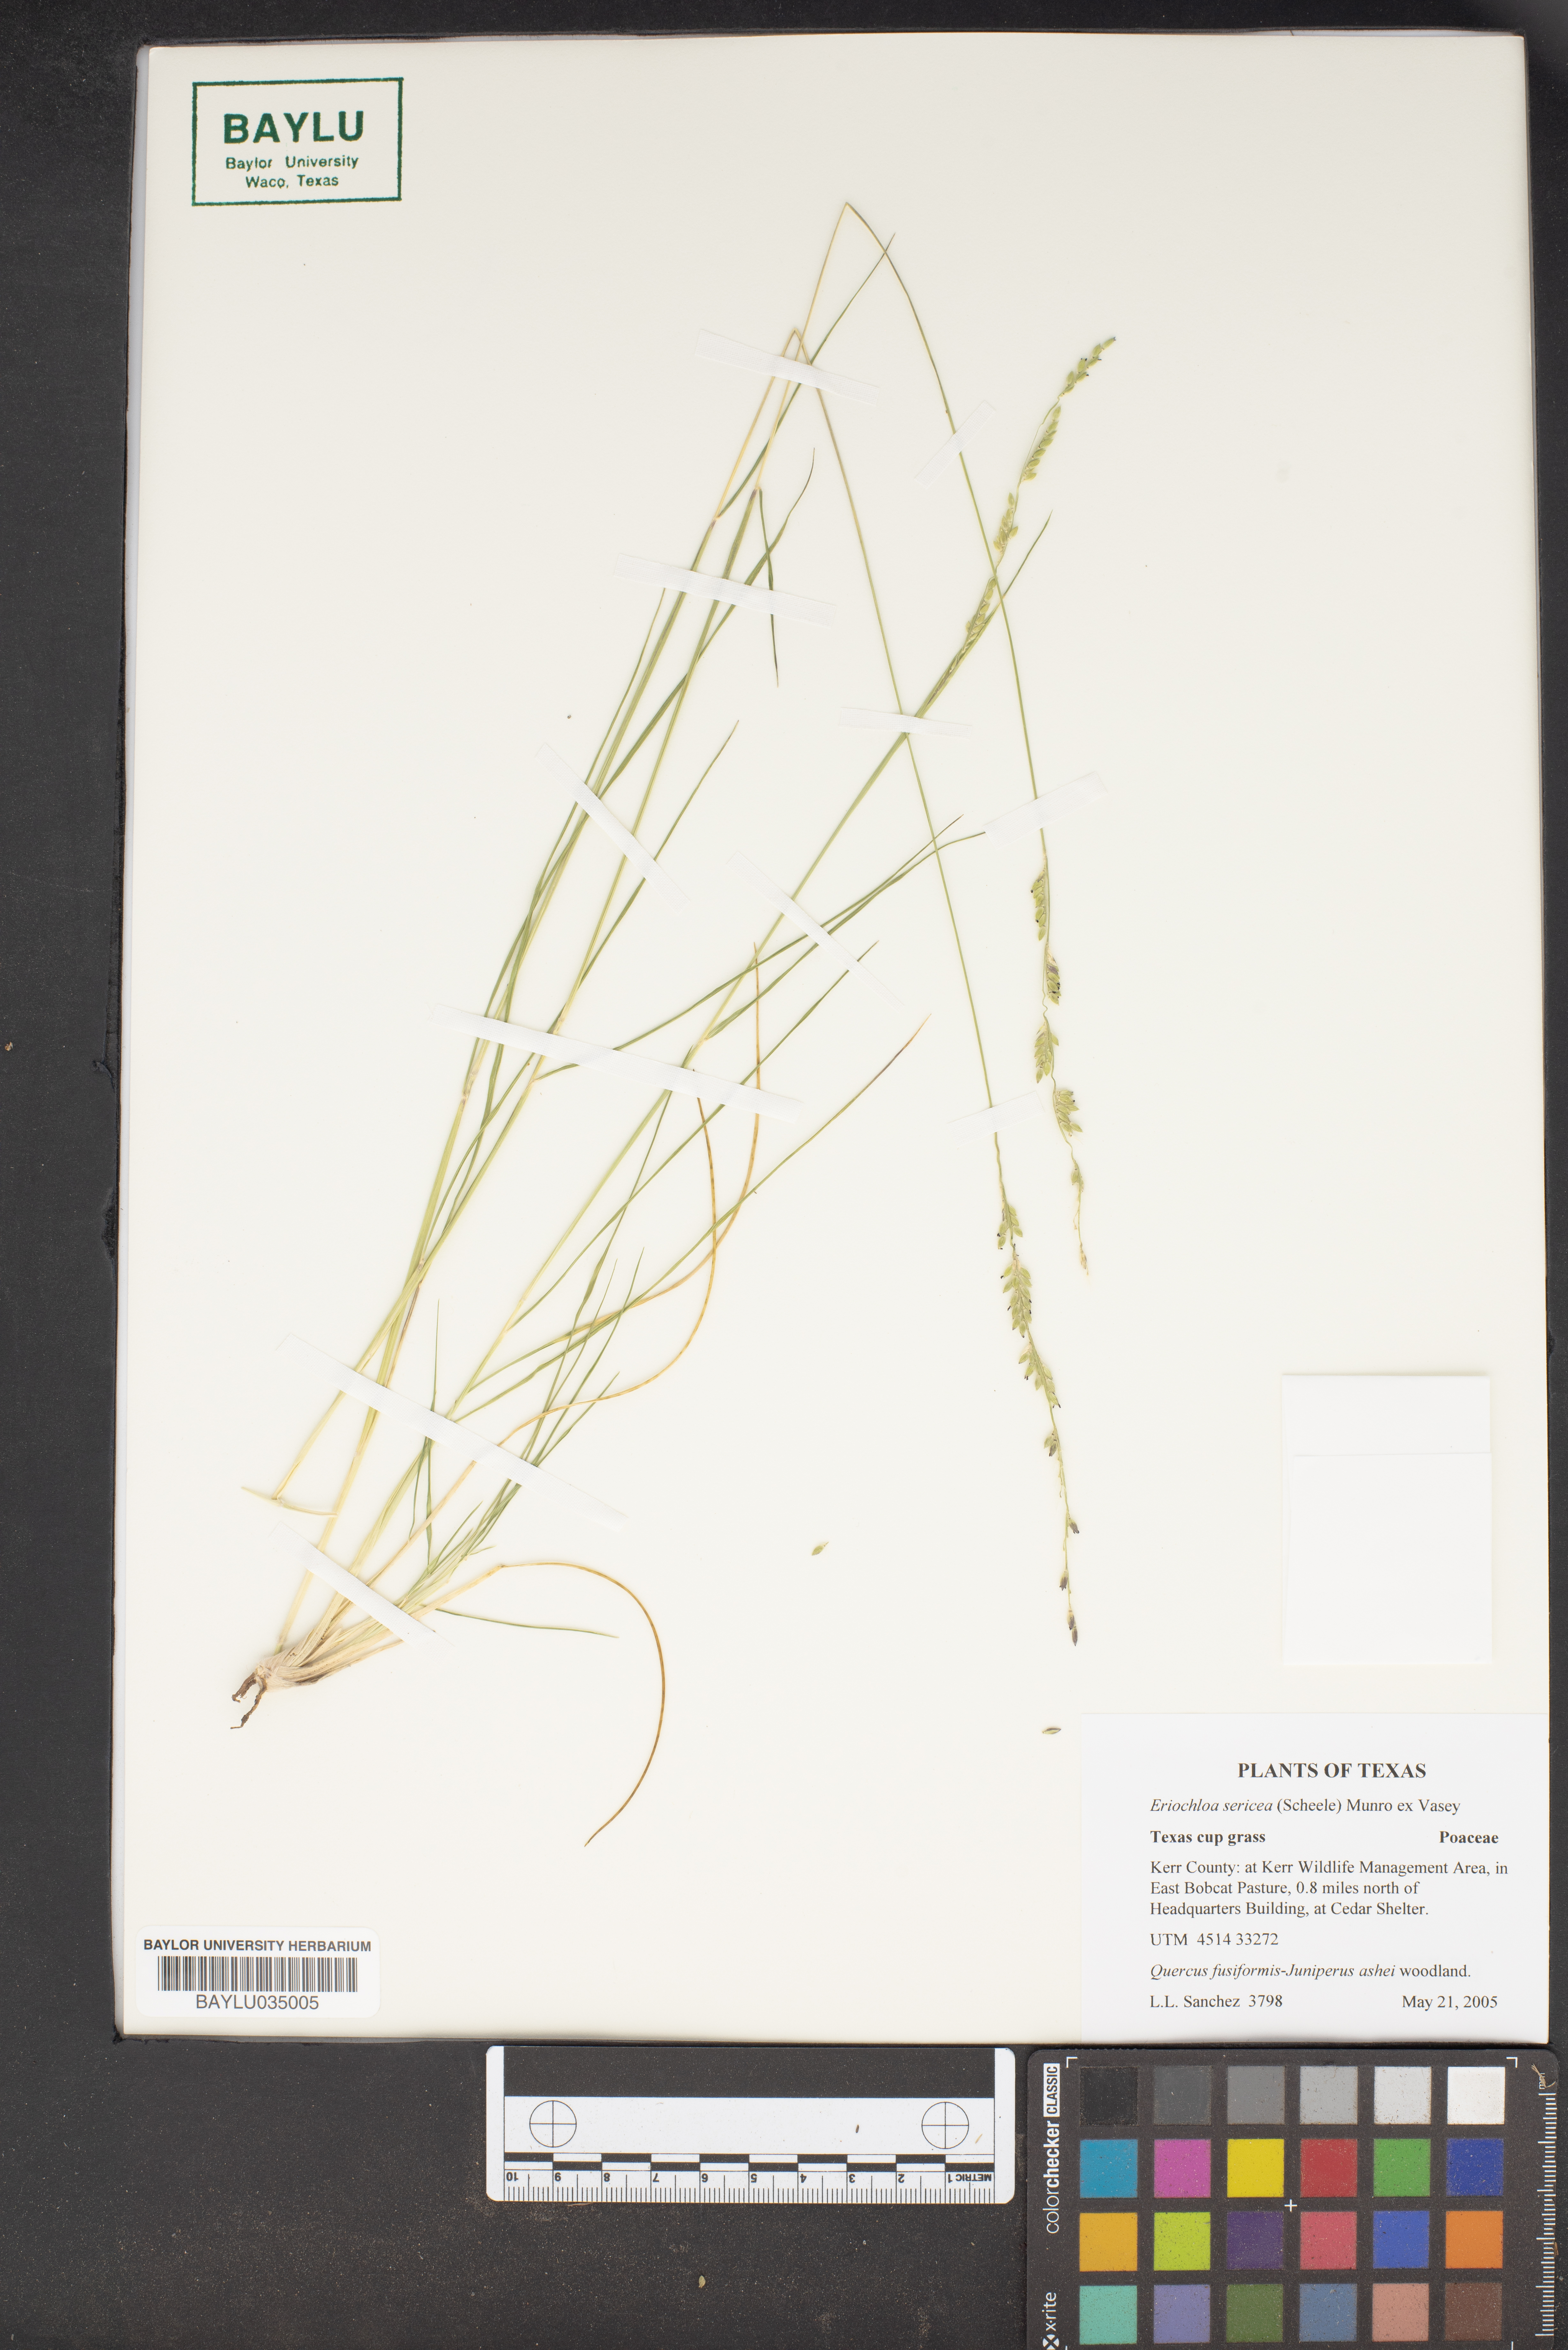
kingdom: Plantae
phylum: Tracheophyta
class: Liliopsida
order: Poales
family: Poaceae
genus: Eriochloa
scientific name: Eriochloa sericea
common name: Texas cup grass
